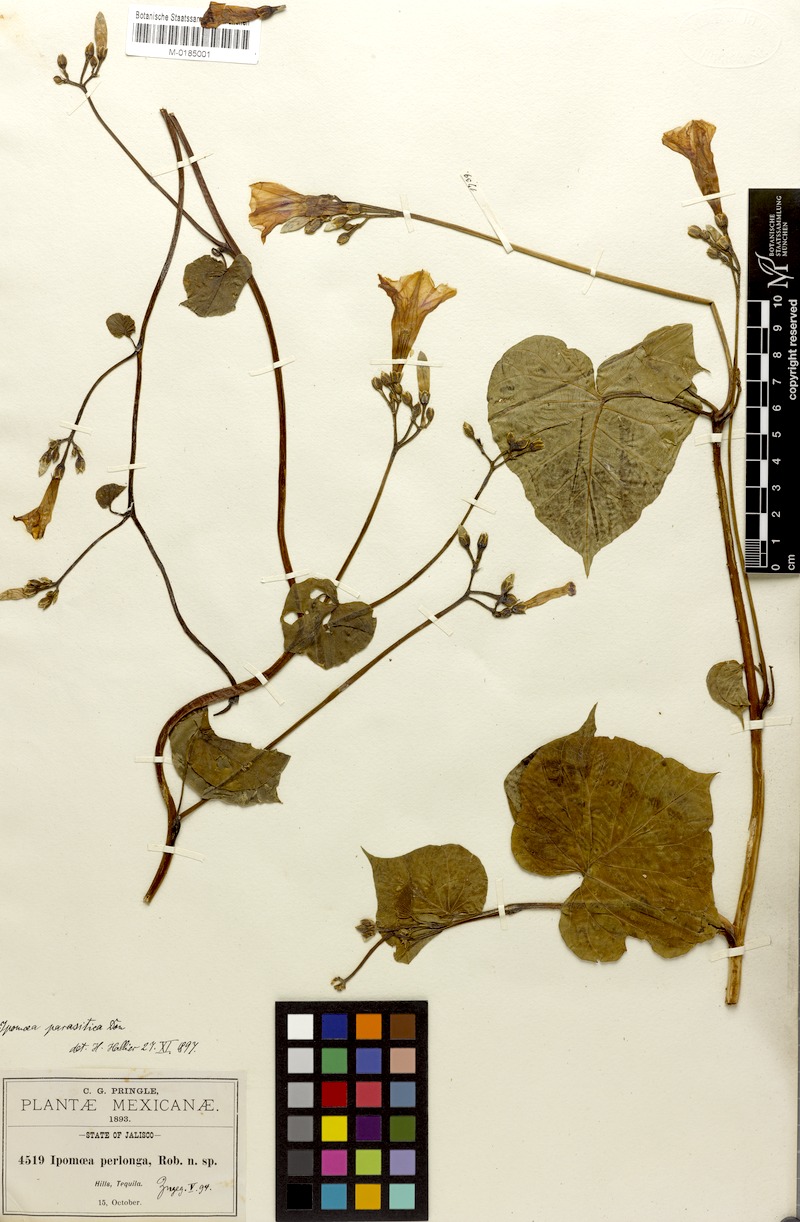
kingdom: Plantae
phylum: Tracheophyta
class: Magnoliopsida
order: Solanales
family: Convolvulaceae
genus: Ipomoea
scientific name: Ipomoea parasitica
